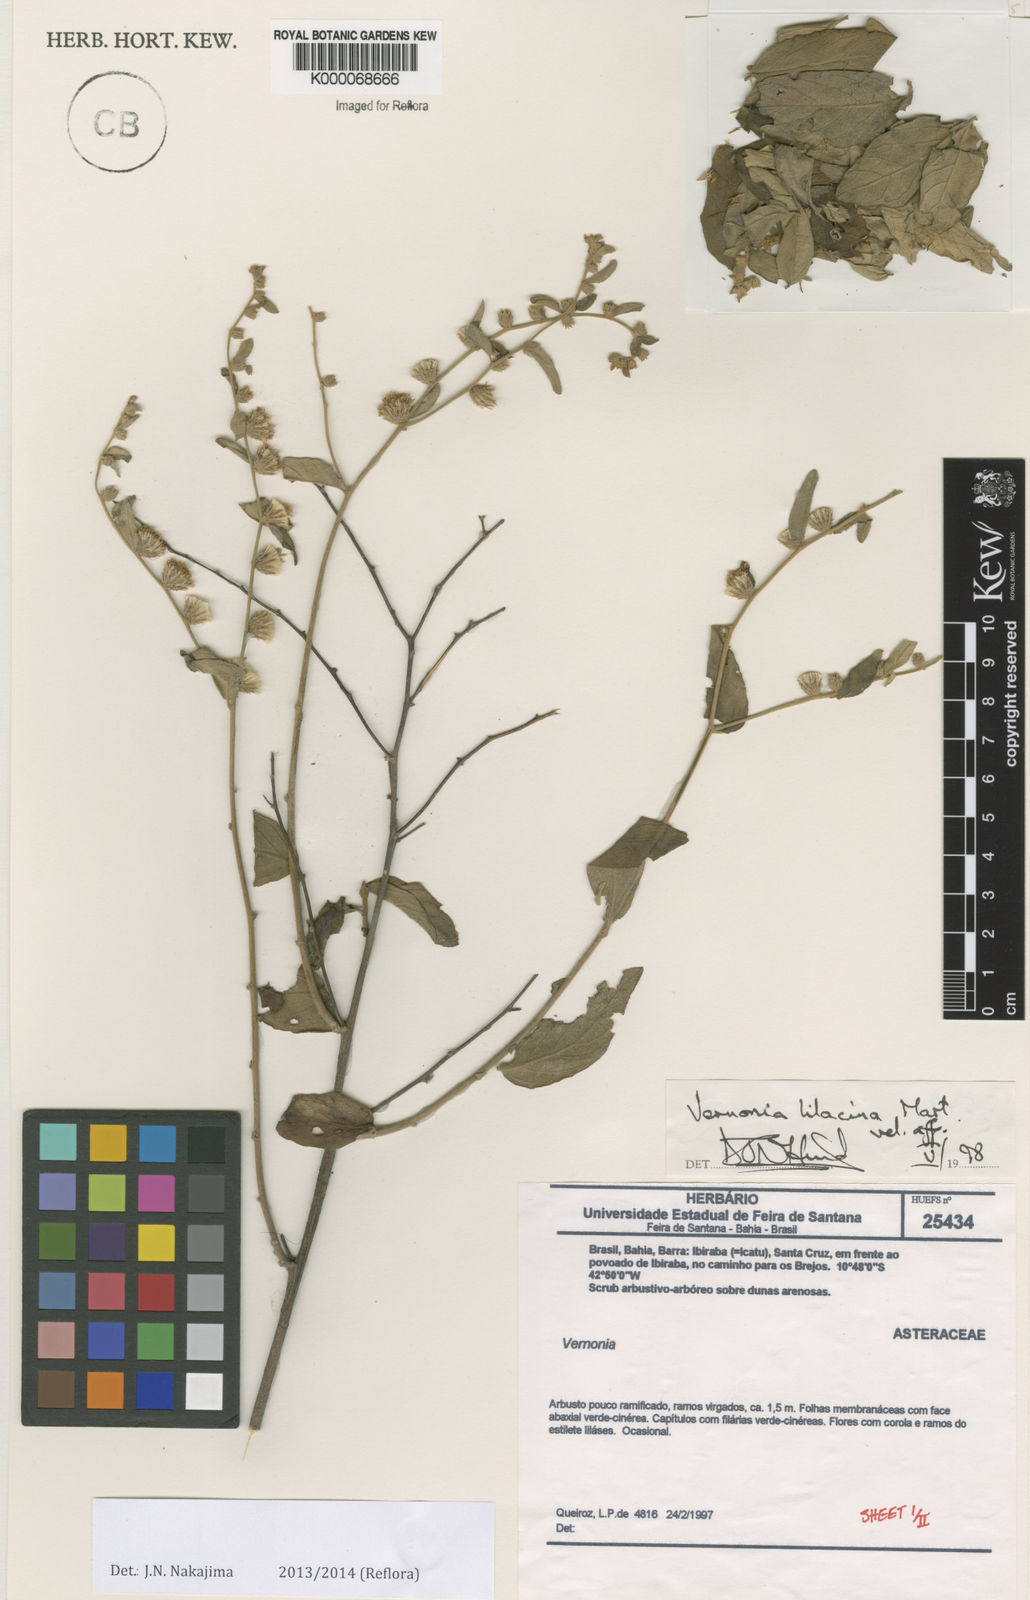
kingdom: Plantae
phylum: Tracheophyta
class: Magnoliopsida
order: Asterales
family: Asteraceae
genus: Lepidaploa
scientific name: Lepidaploa chalybaea
